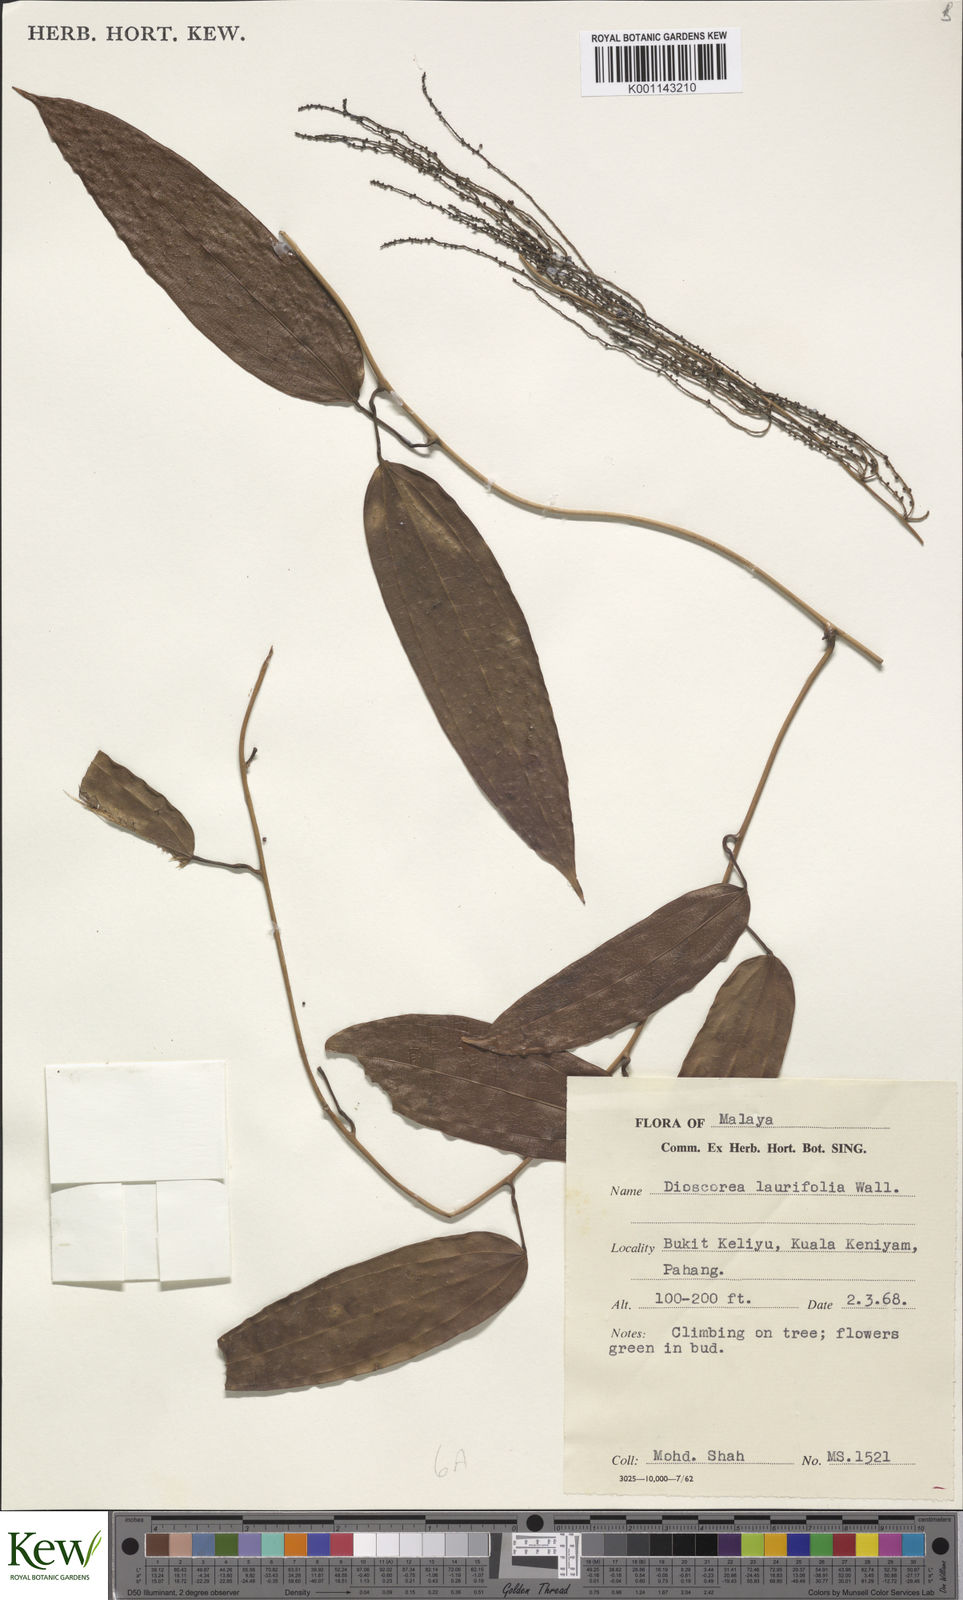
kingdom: Plantae
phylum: Tracheophyta
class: Liliopsida
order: Dioscoreales
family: Dioscoreaceae
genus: Dioscorea
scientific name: Dioscorea laurifolia
